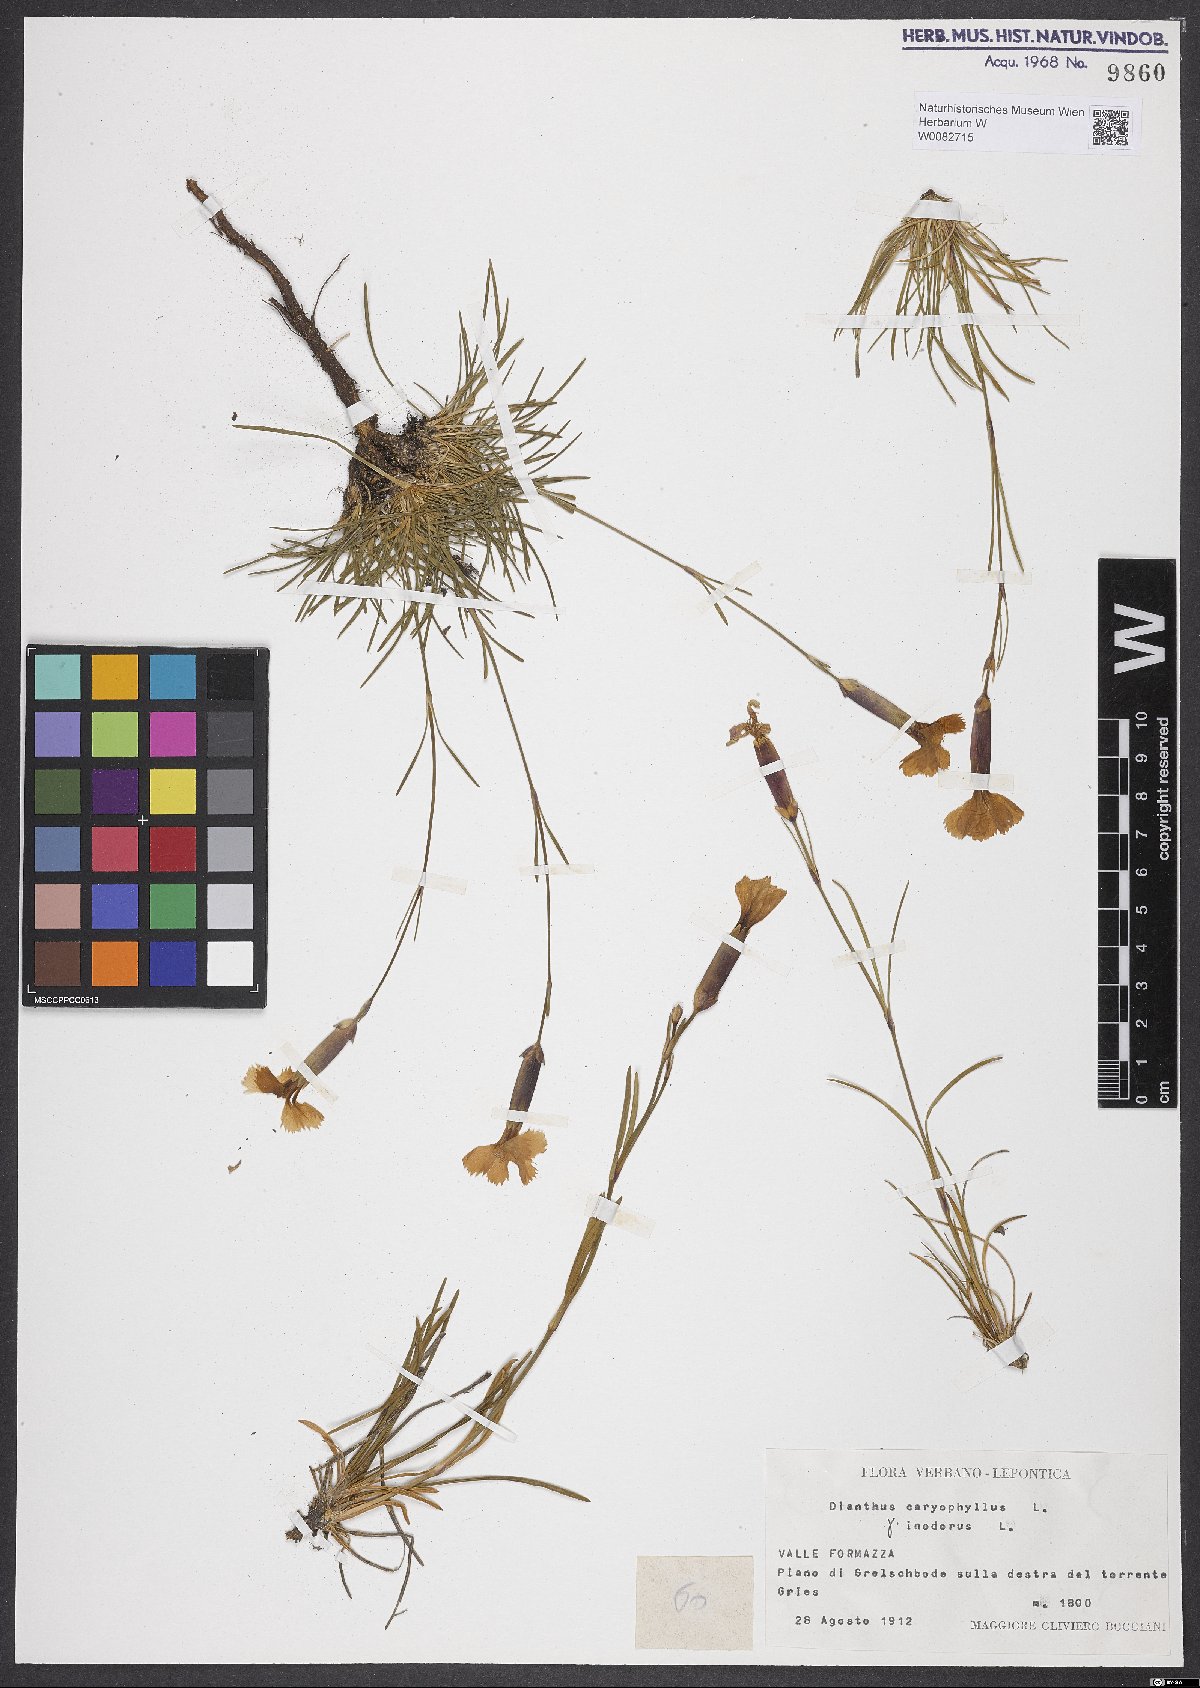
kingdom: Plantae
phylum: Tracheophyta
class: Magnoliopsida
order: Caryophyllales
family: Caryophyllaceae
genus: Dianthus
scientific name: Dianthus caryophyllus
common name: Clove pink
